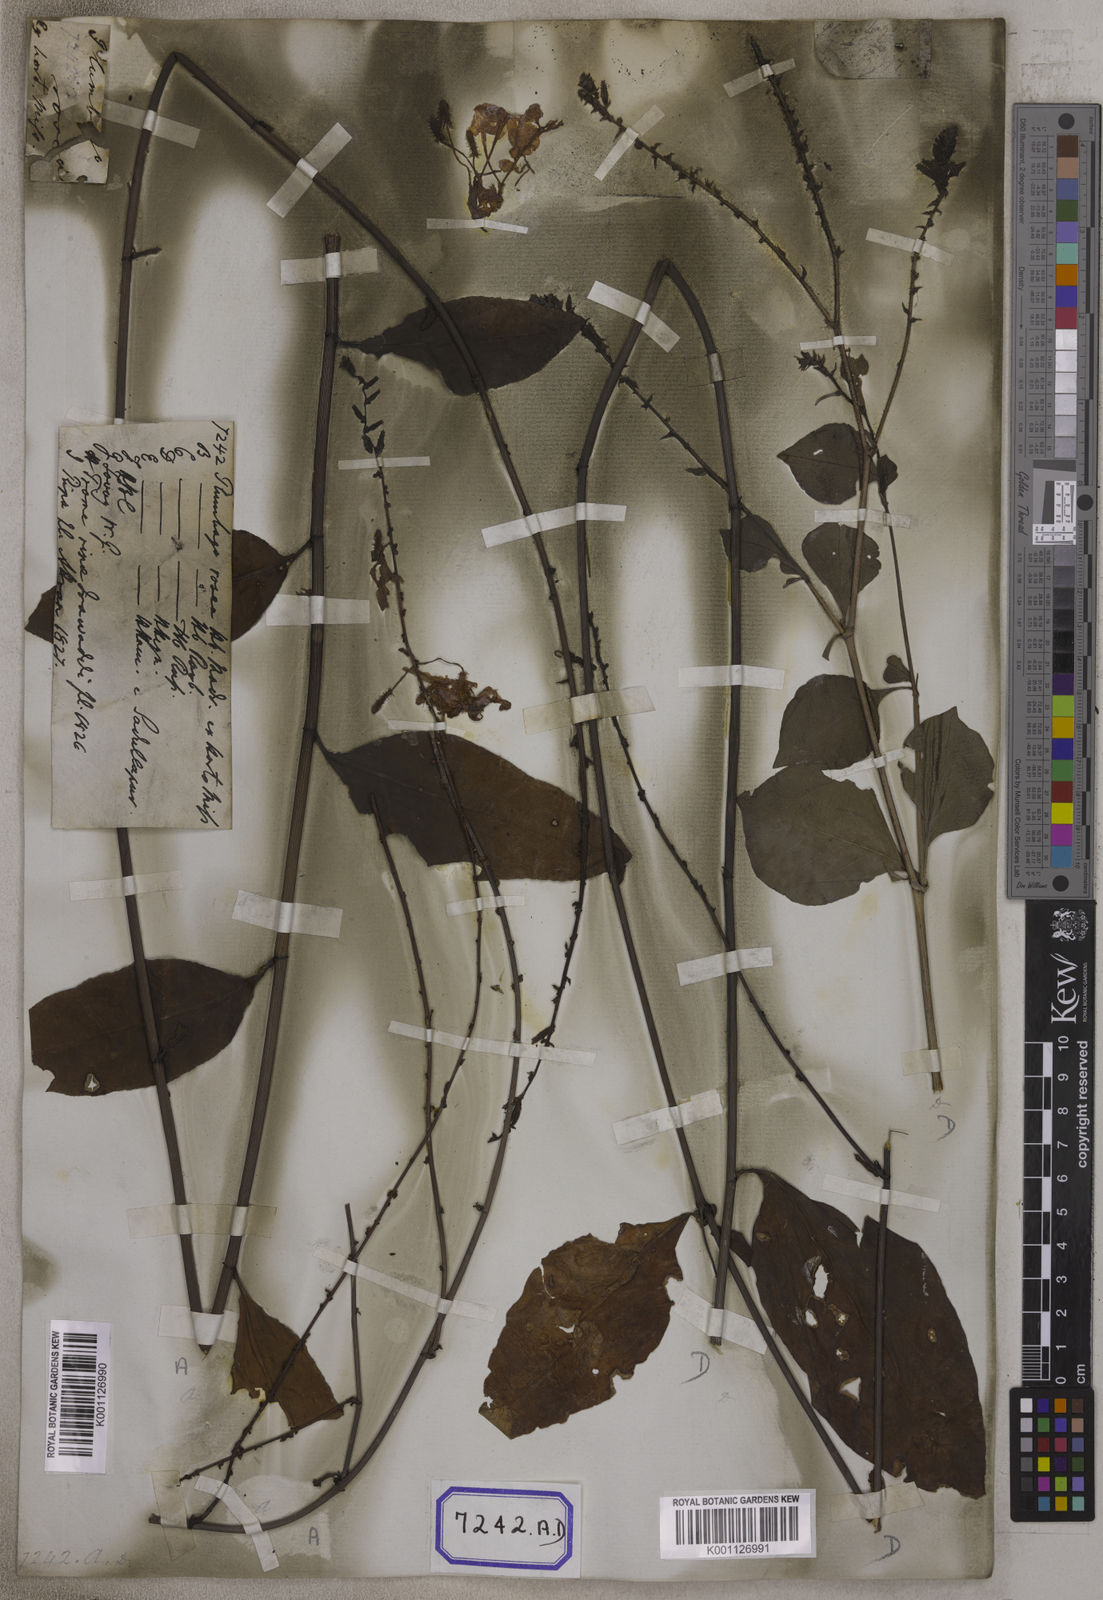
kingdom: Plantae
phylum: Tracheophyta
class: Magnoliopsida
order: Caryophyllales
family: Plumbaginaceae
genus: Plumbago
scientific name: Plumbago indica
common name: Indian leadwort
